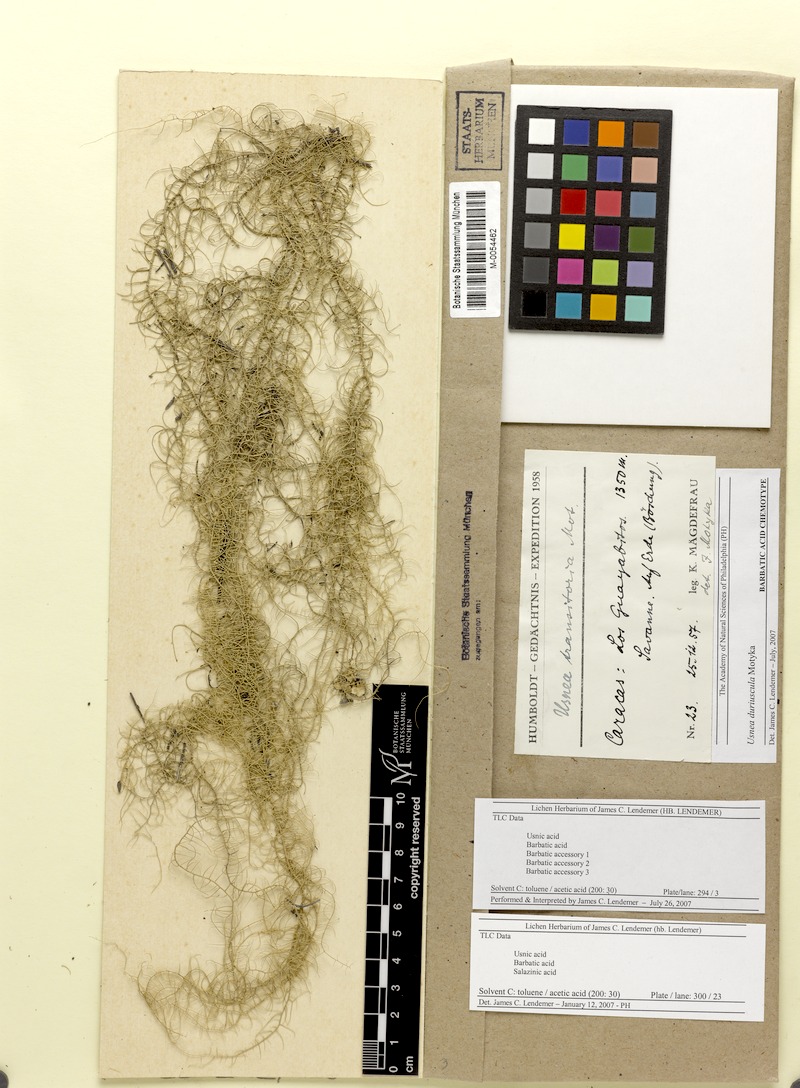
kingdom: Fungi
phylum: Ascomycota
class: Lecanoromycetes
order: Lecanorales
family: Parmeliaceae
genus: Usnea
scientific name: Usnea duriuscula
